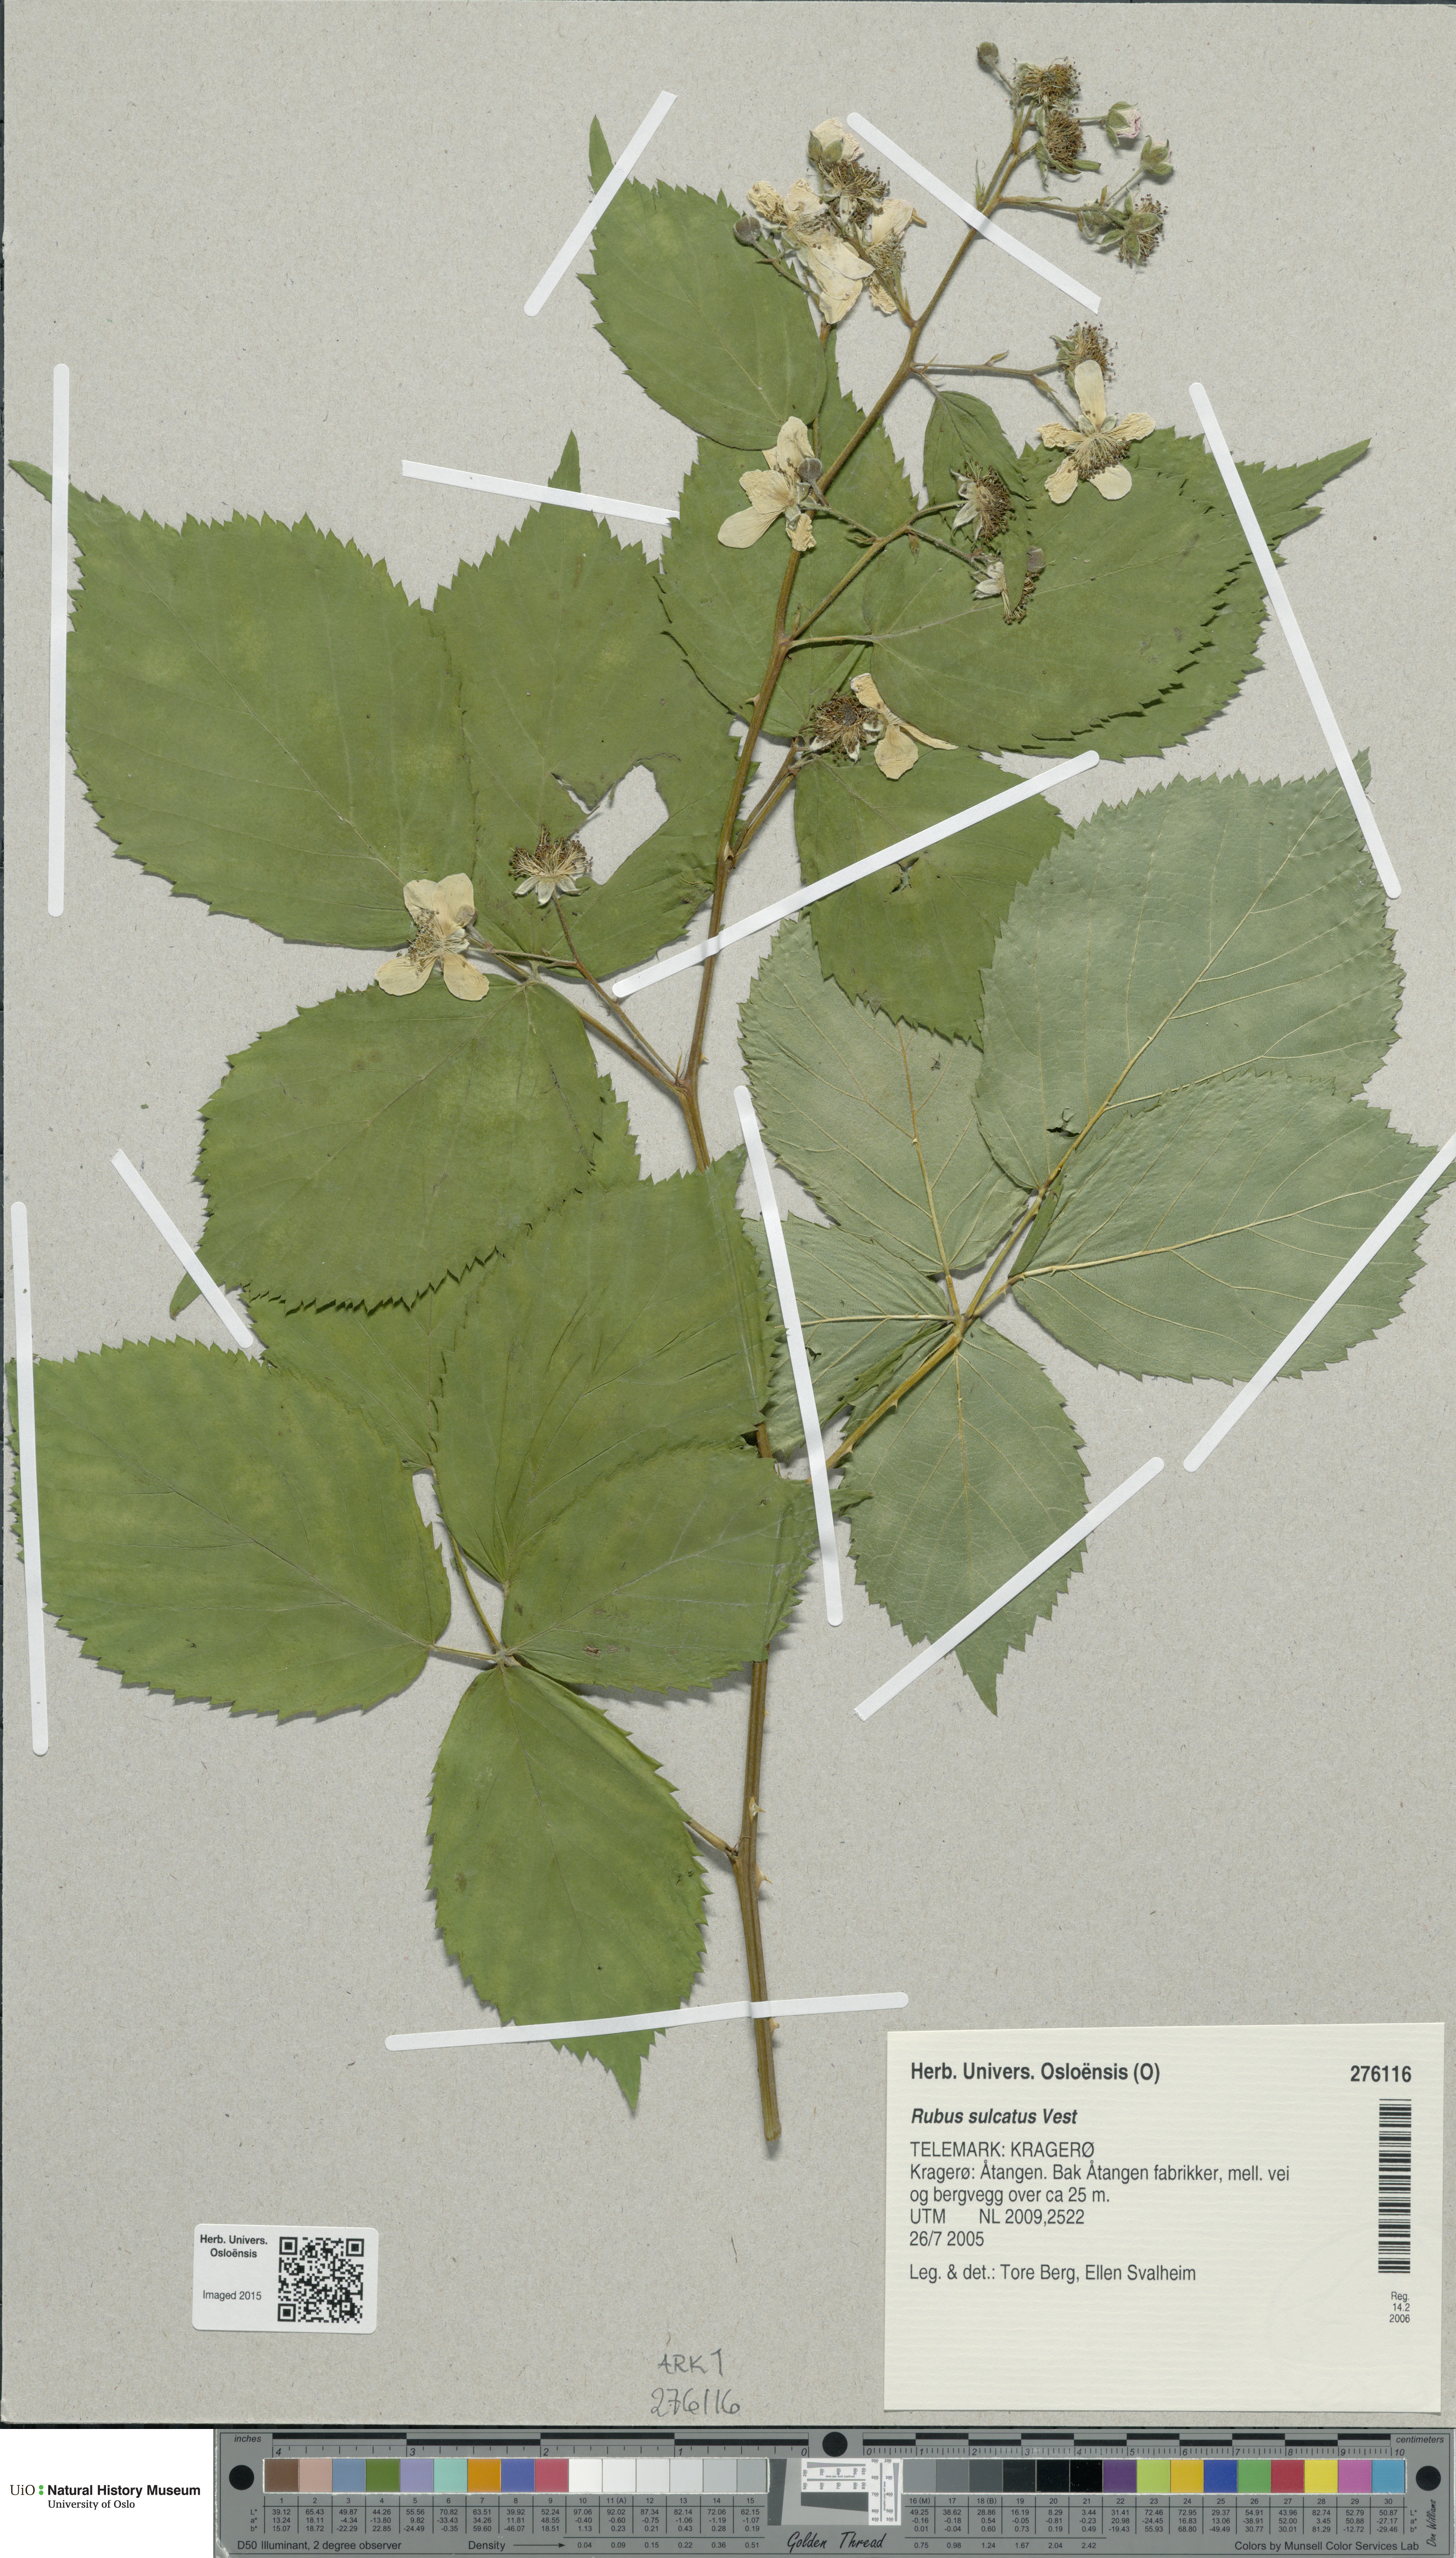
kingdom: Plantae
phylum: Tracheophyta
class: Magnoliopsida
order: Rosales
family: Rosaceae
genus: Rubus
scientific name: Rubus sulcatus
